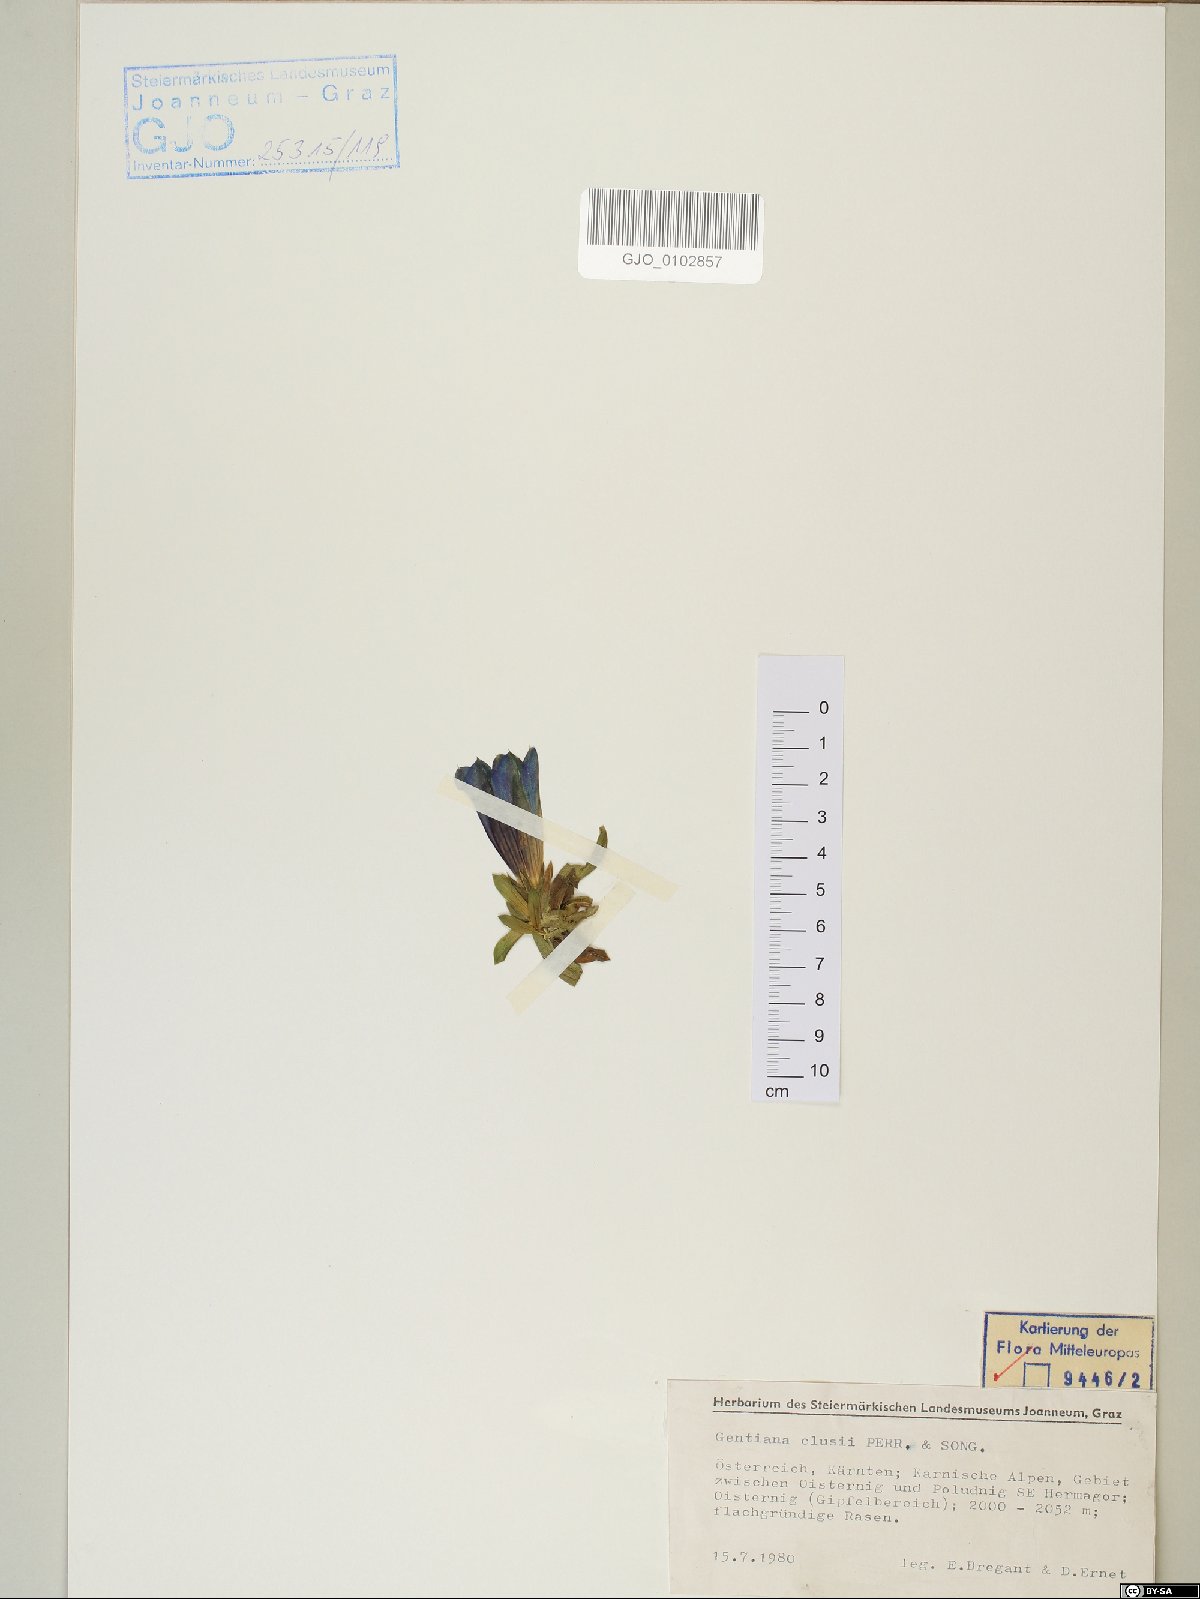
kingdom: Plantae
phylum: Tracheophyta
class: Magnoliopsida
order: Gentianales
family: Gentianaceae
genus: Gentiana
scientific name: Gentiana clusii
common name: Trumpet gentian
